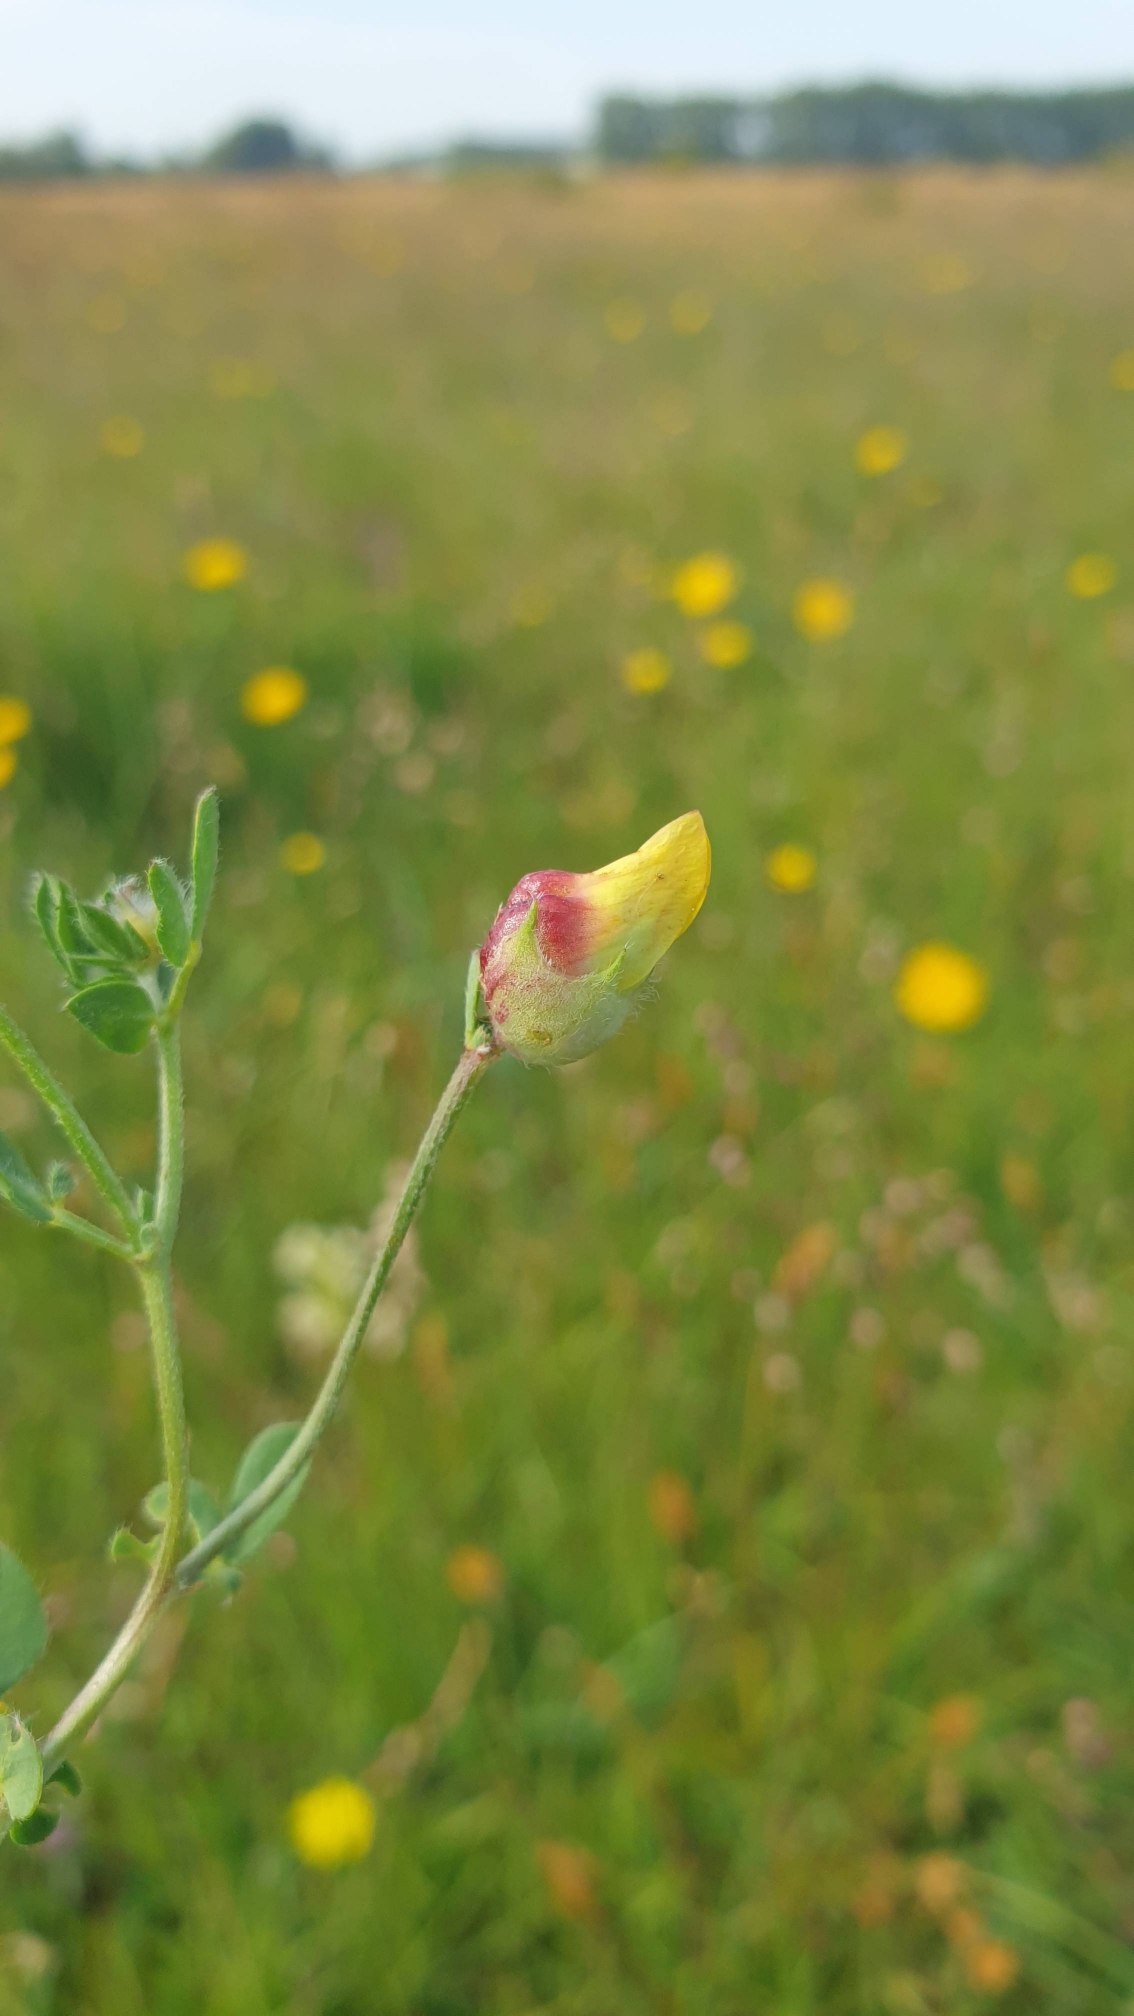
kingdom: Animalia
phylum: Arthropoda
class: Insecta
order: Diptera
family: Cecidomyiidae
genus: Contarinia
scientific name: Contarinia loti
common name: Kællingetandblomstgalmyg
